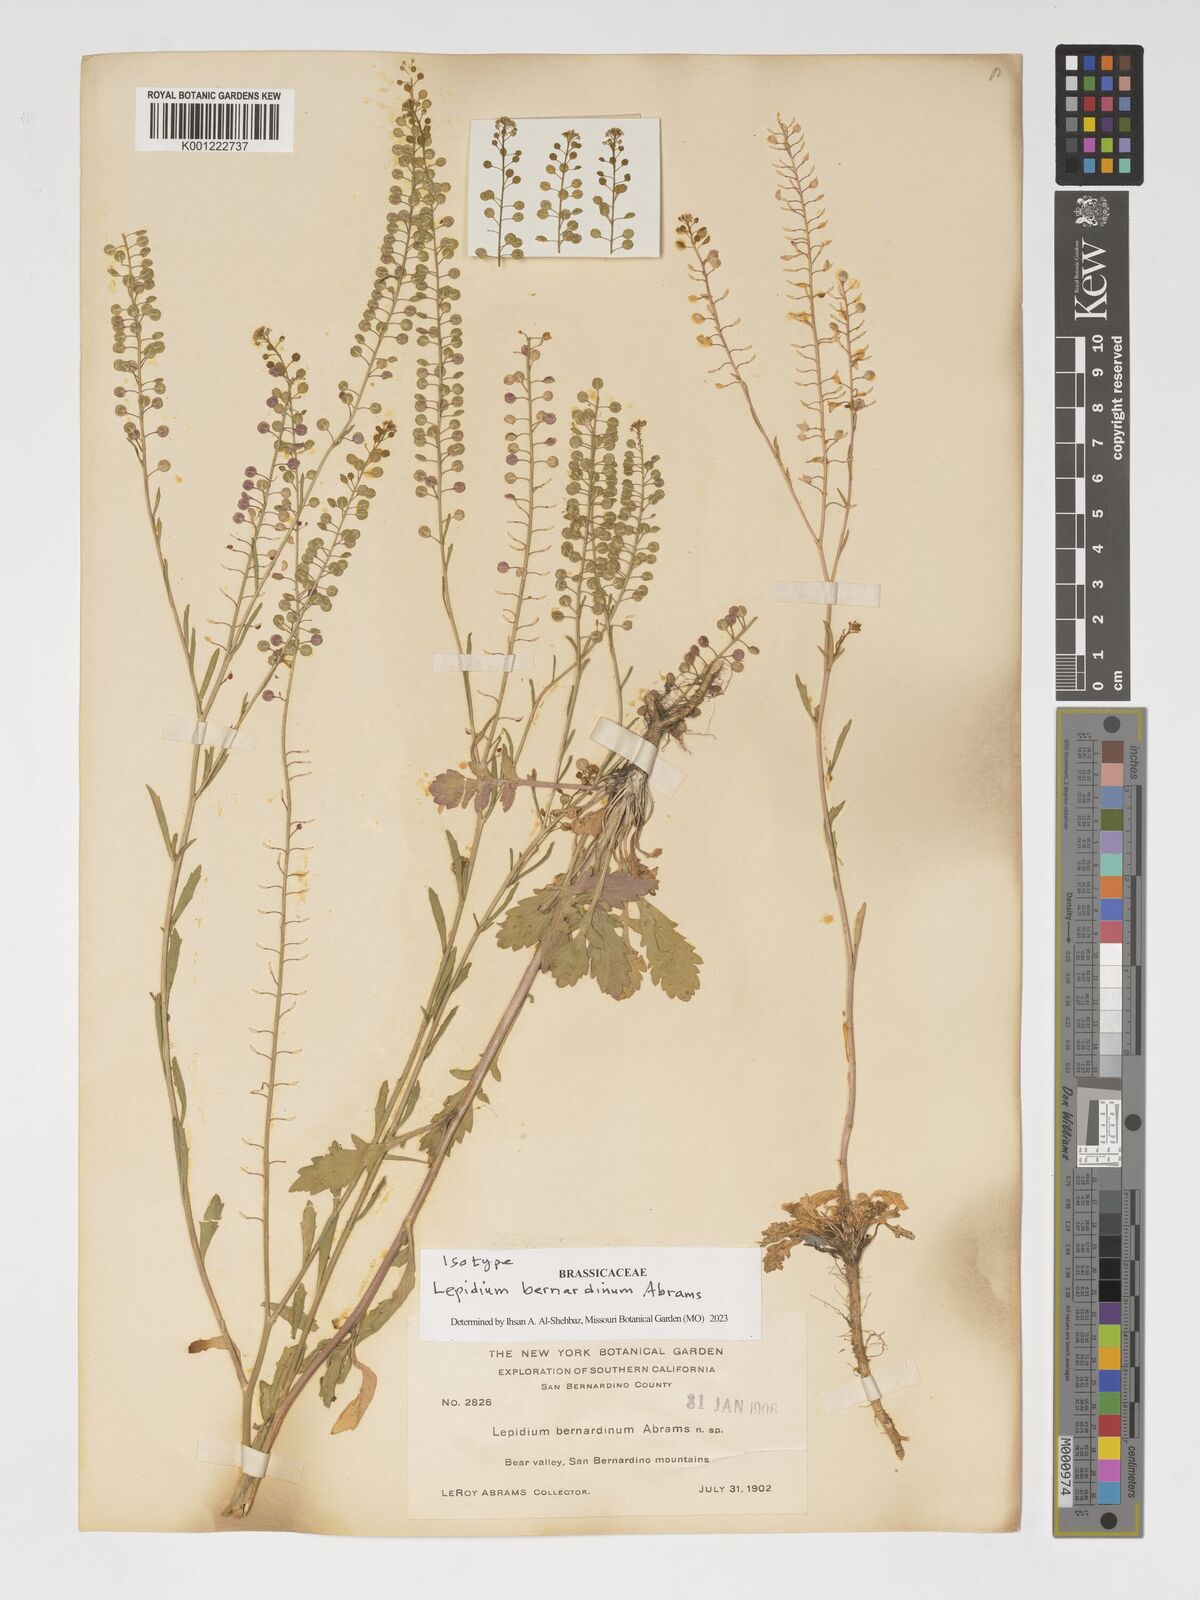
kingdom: Plantae
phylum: Tracheophyta
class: Magnoliopsida
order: Brassicales
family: Brassicaceae
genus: Lepidium
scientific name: Lepidium virginicum
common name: Least pepperwort
